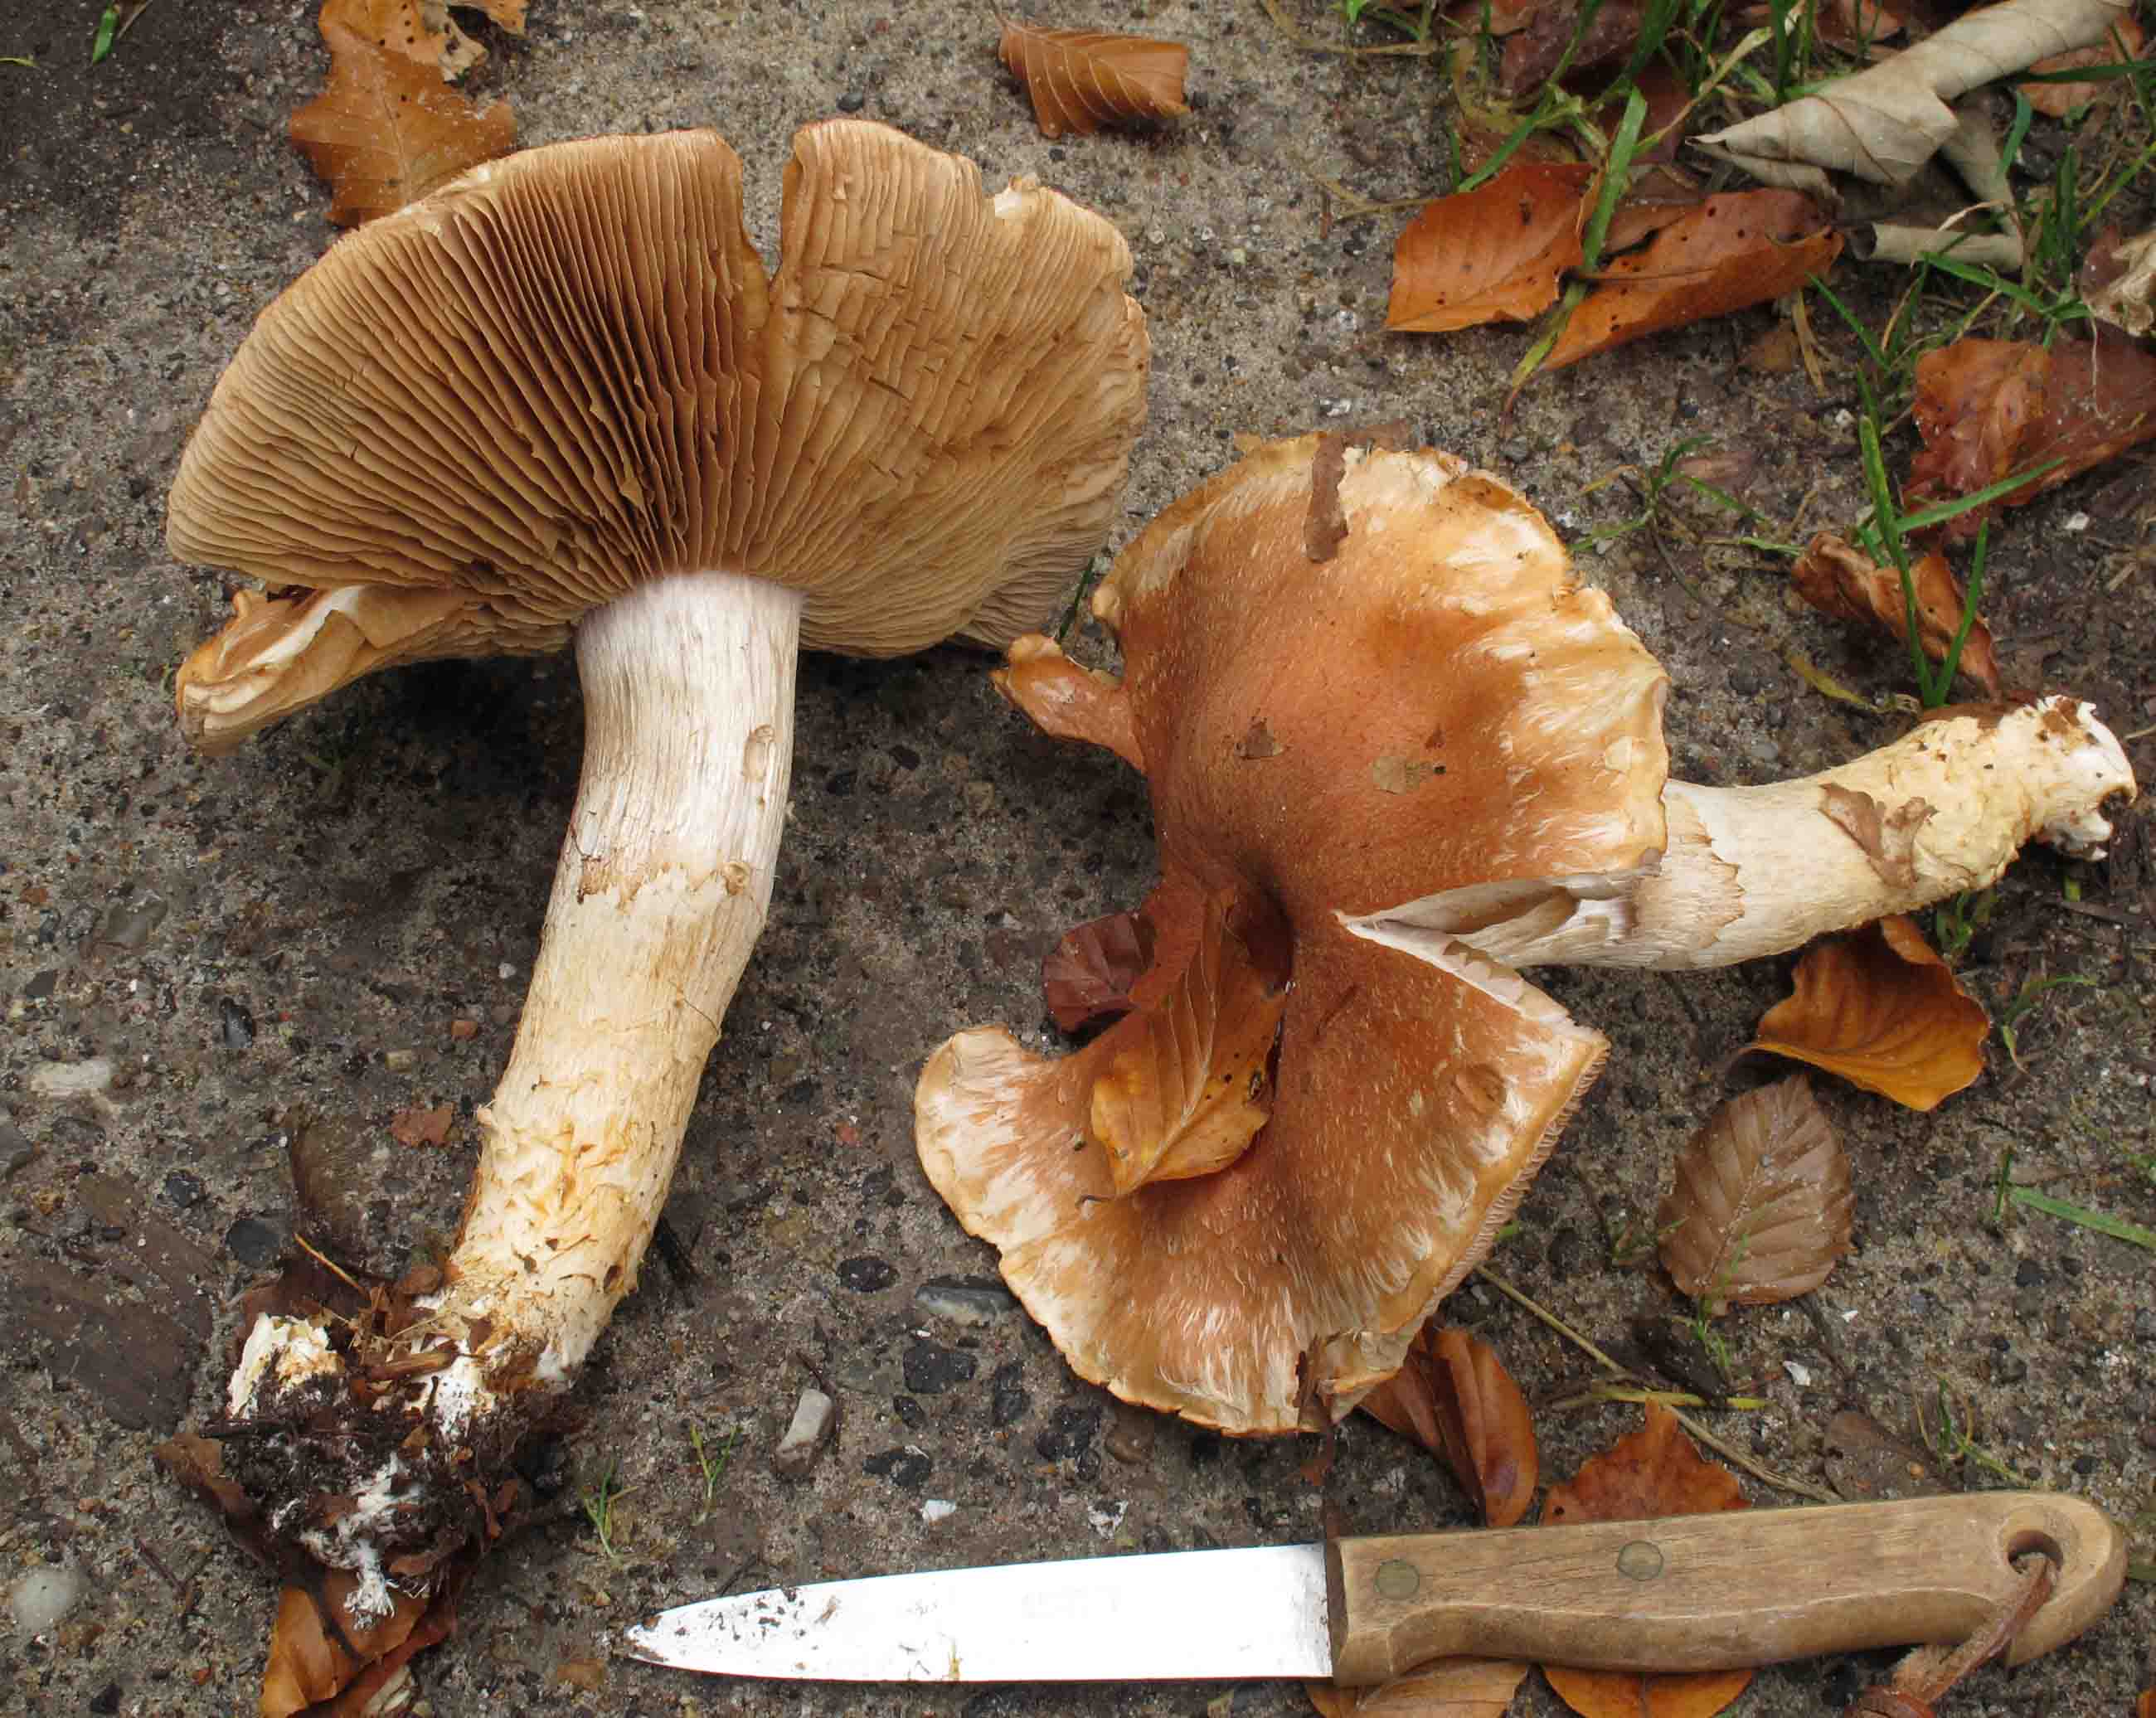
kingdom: Fungi
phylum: Basidiomycota
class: Agaricomycetes
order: Agaricales
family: Cortinariaceae
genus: Phlegmacium
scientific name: Phlegmacium vulpinum
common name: ringbæltet slørhat
